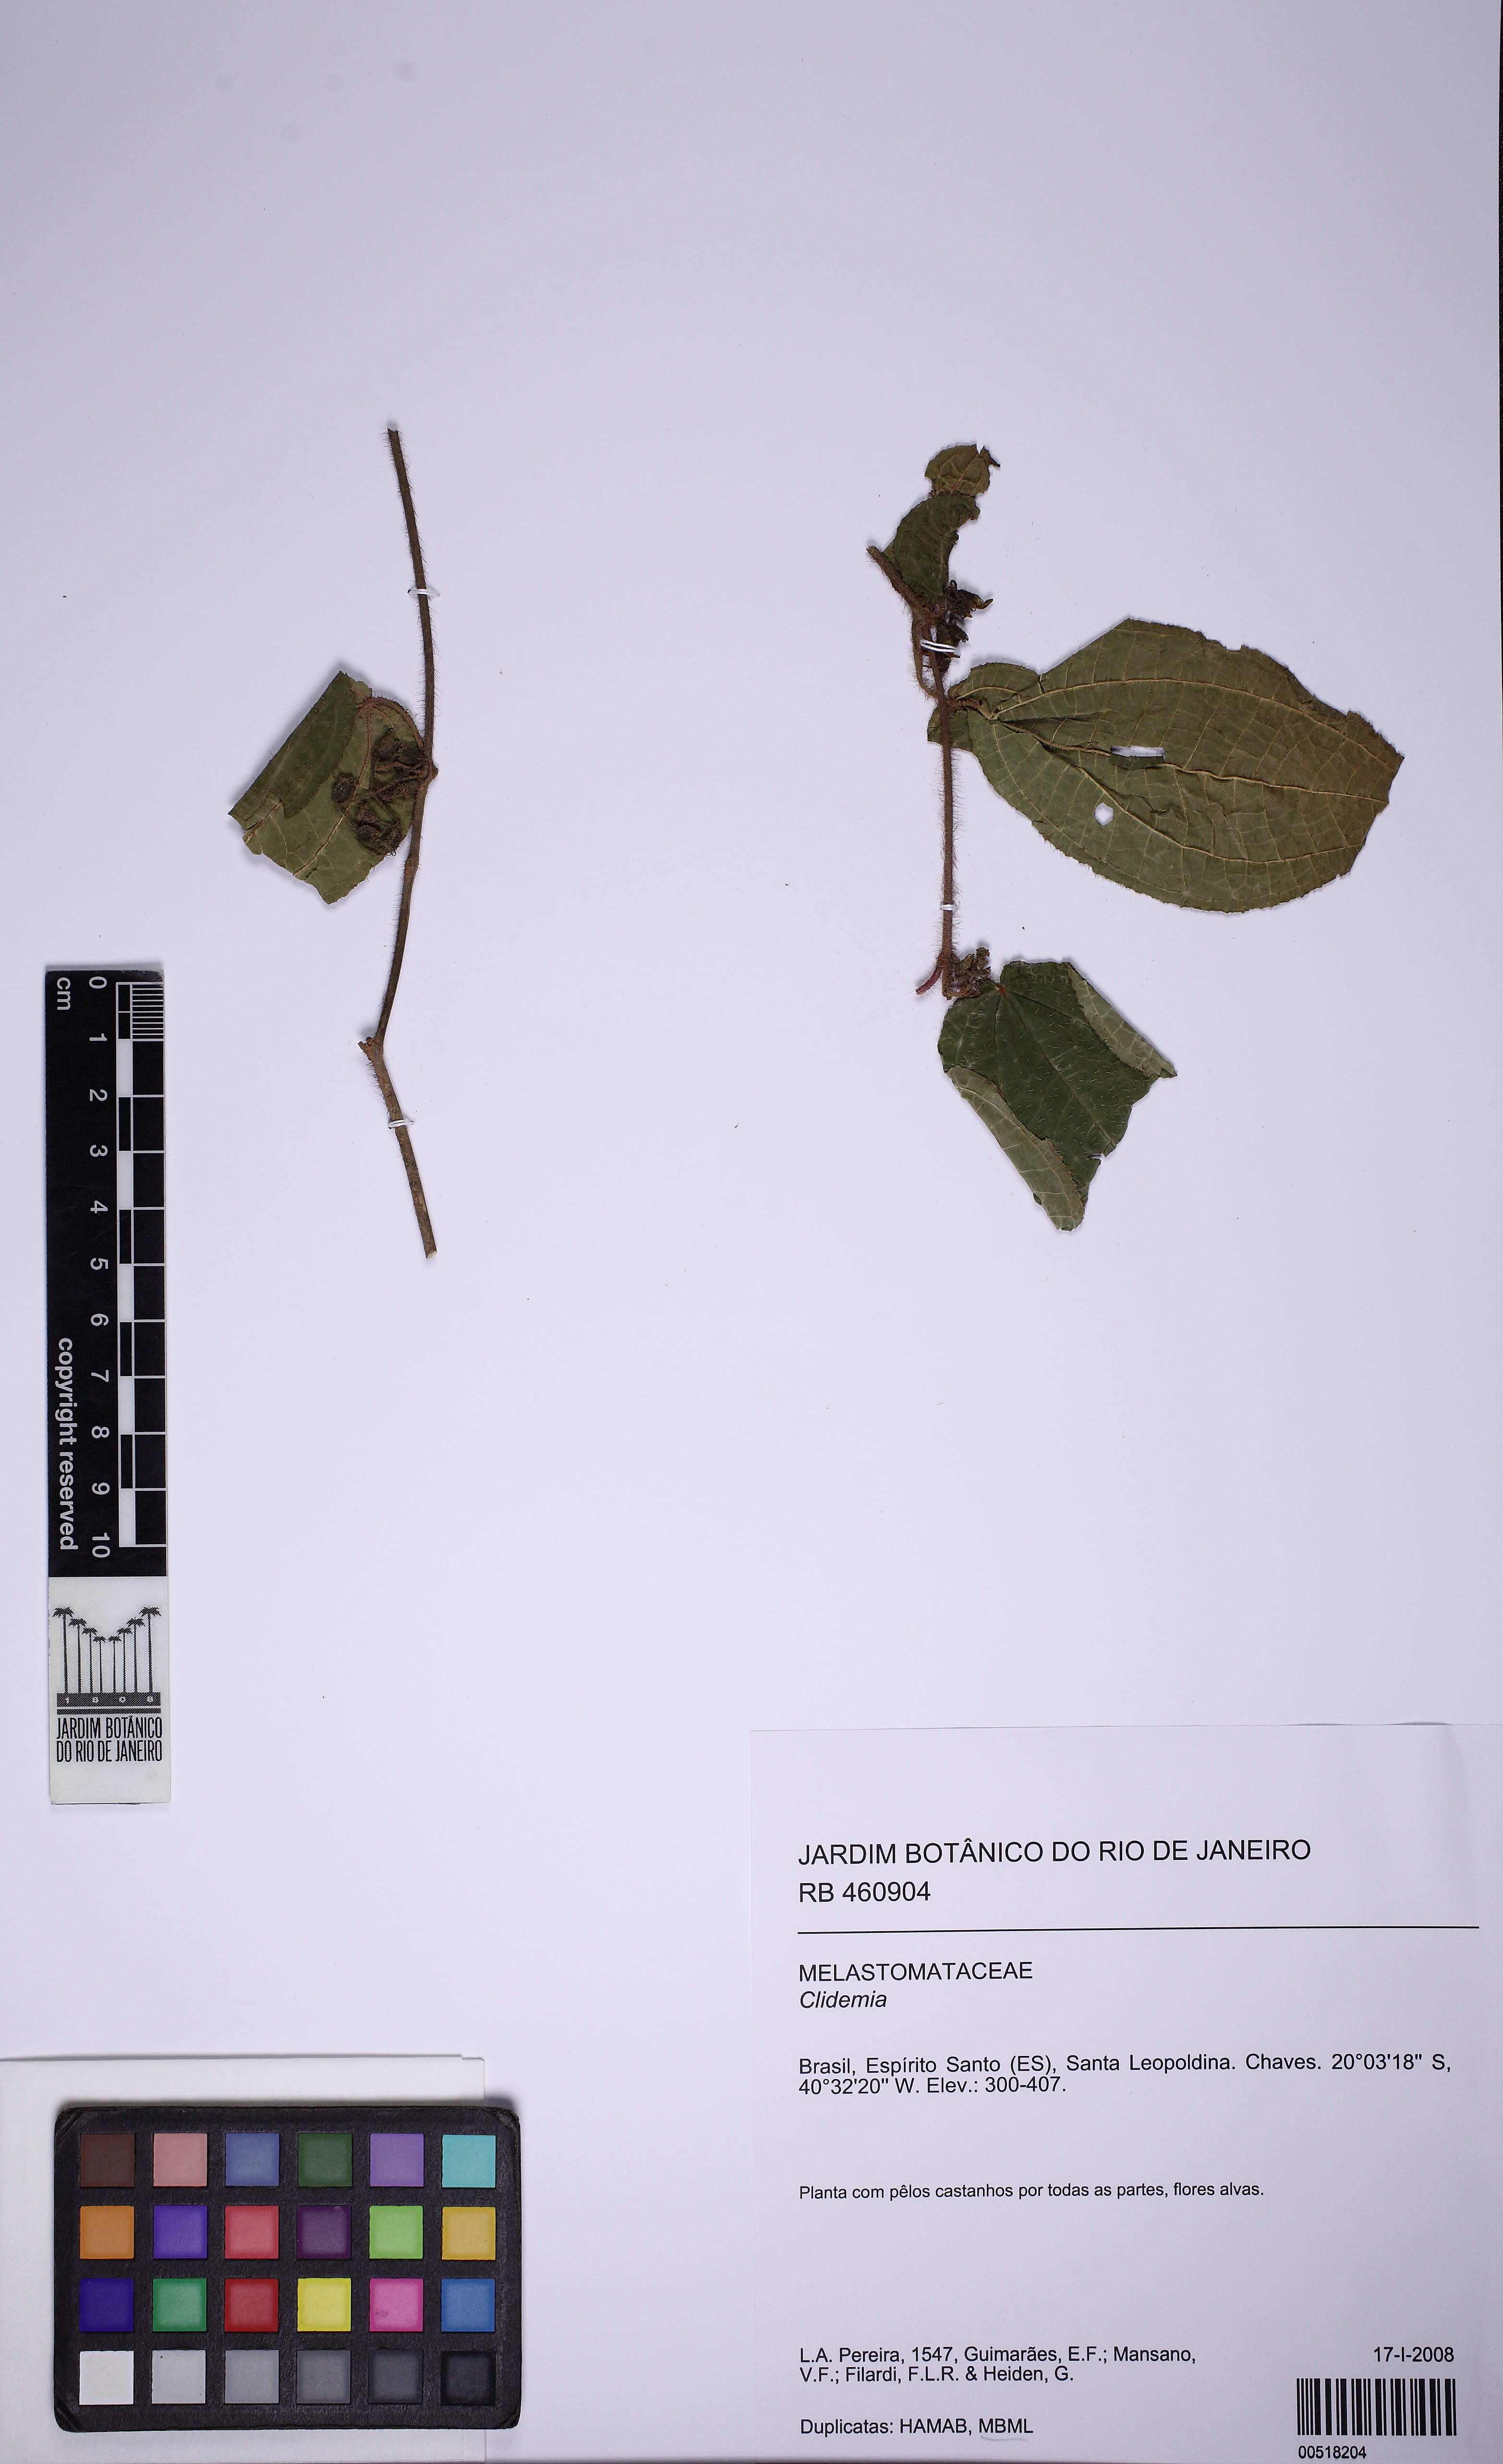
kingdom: Plantae
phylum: Tracheophyta
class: Magnoliopsida
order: Myrtales
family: Melastomataceae
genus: Miconia
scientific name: Miconia crenata
